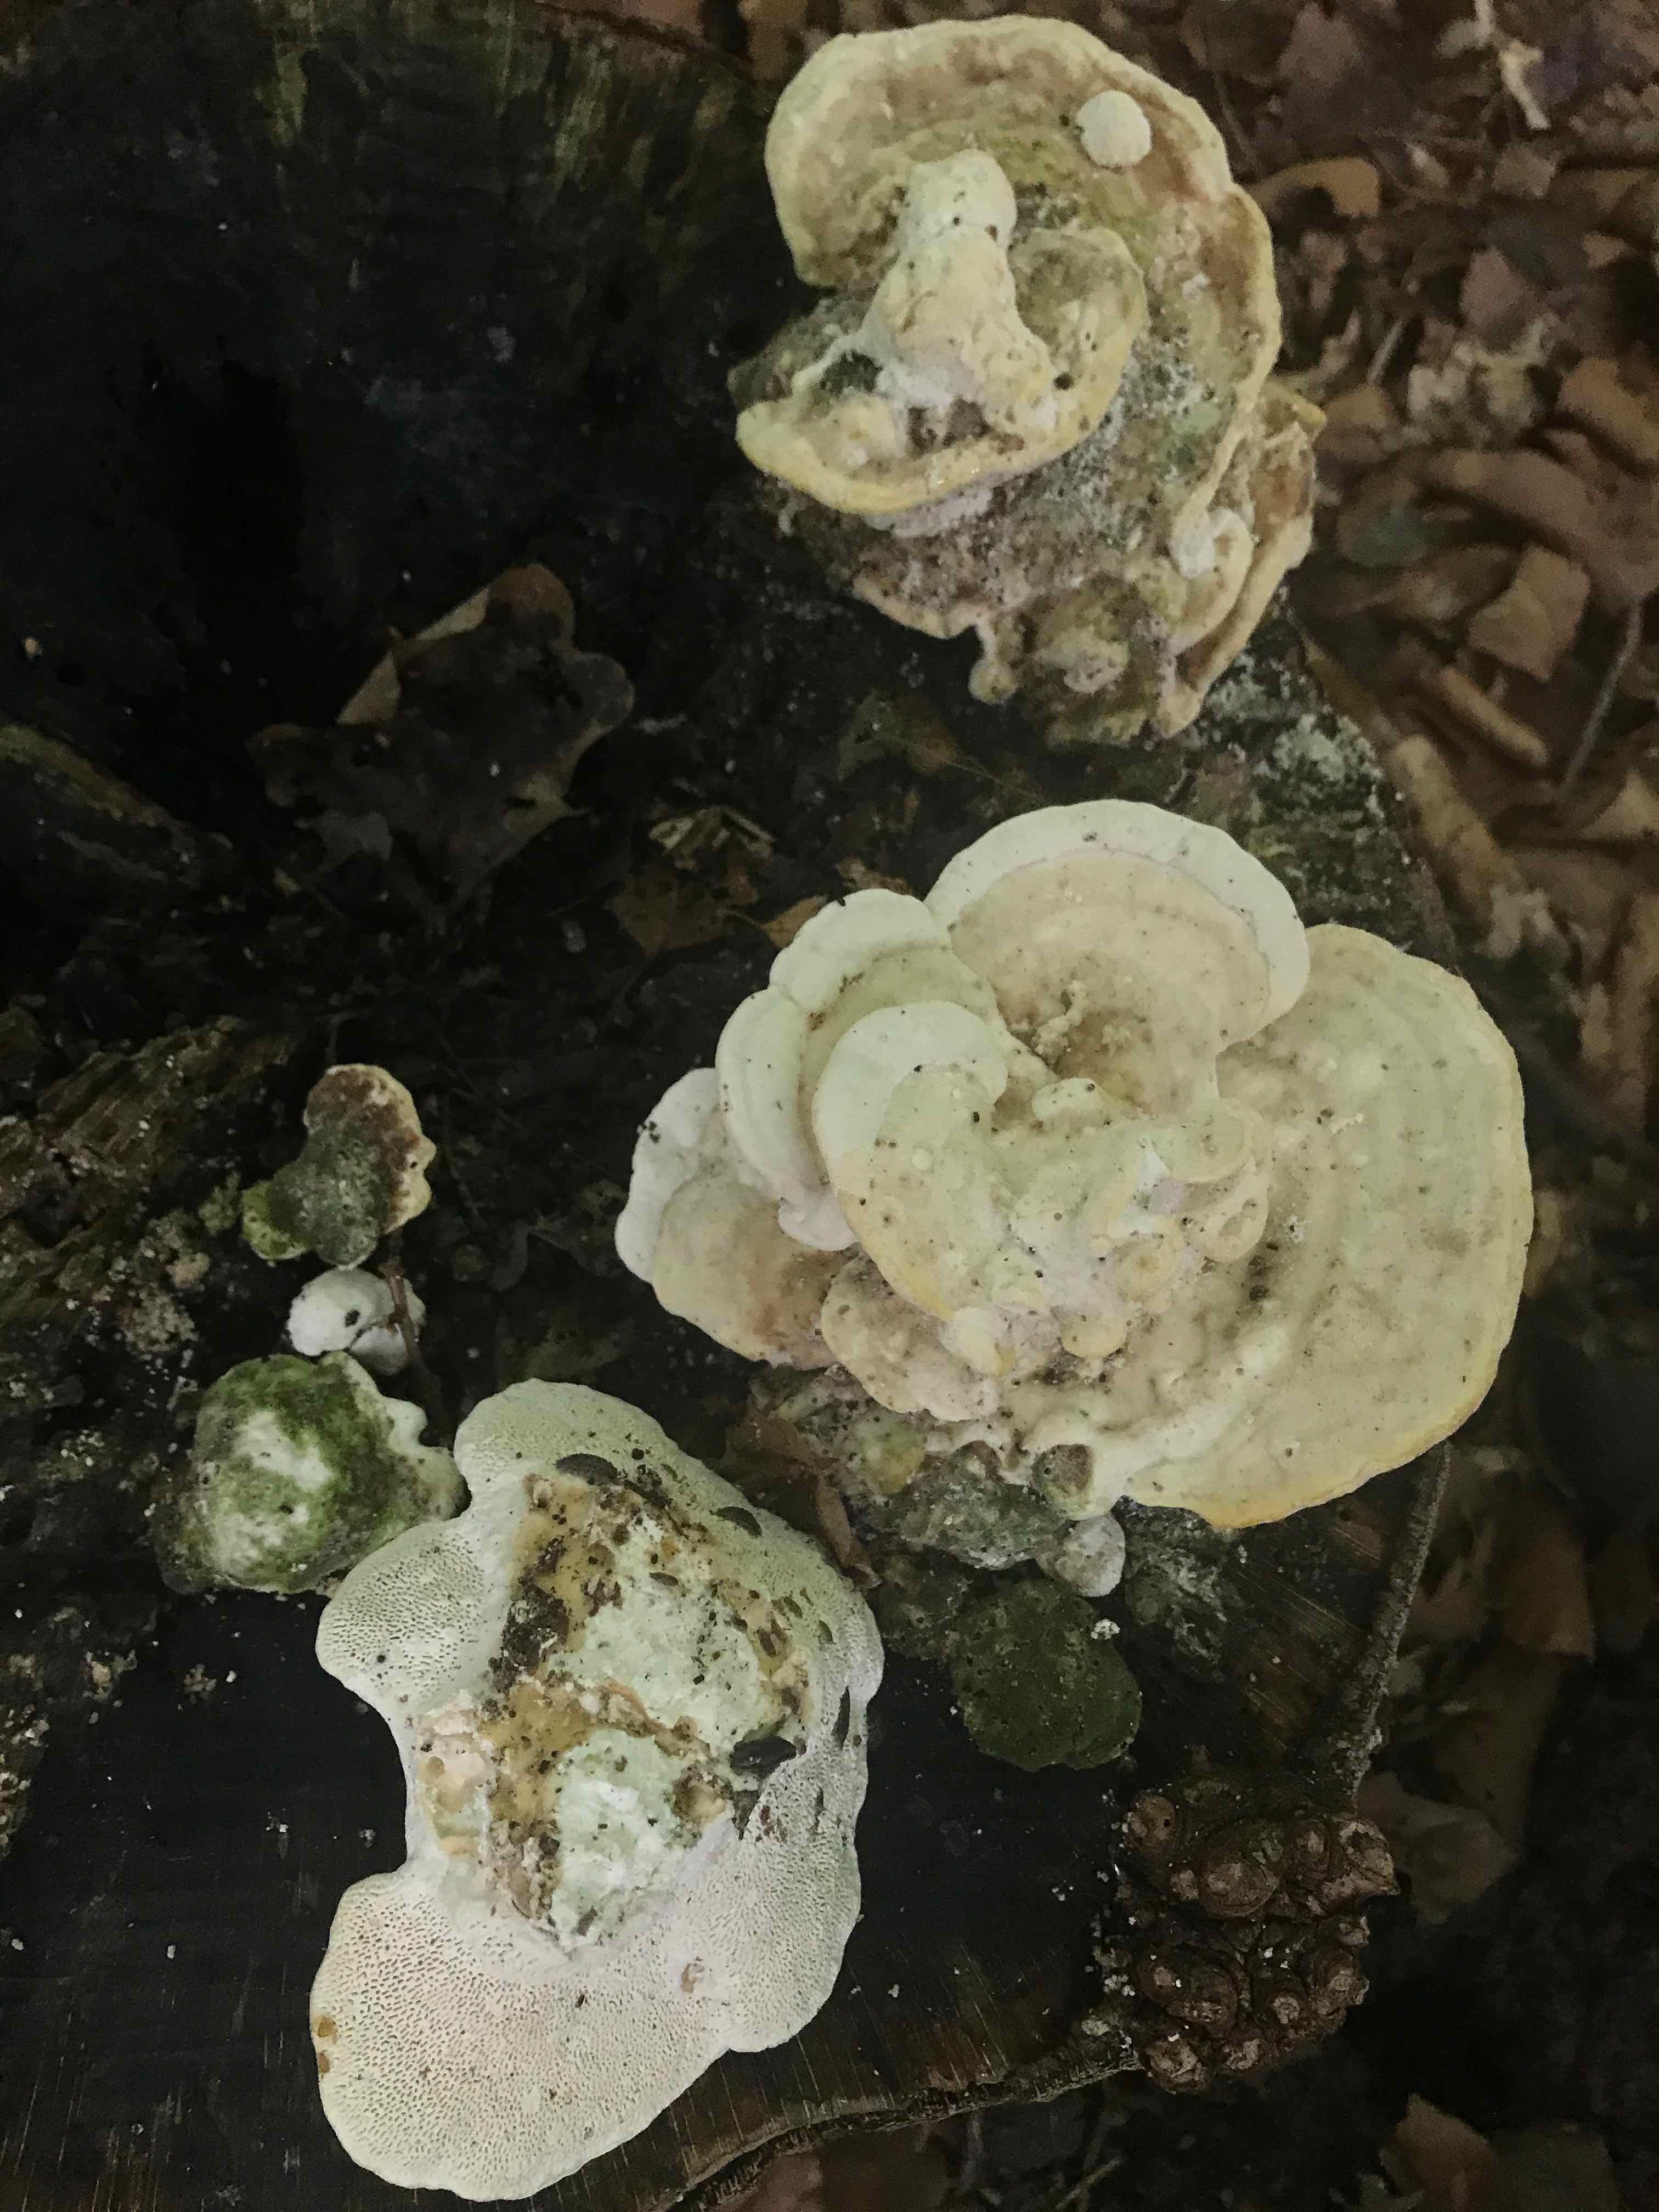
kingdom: Fungi
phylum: Basidiomycota
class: Agaricomycetes
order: Polyporales
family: Polyporaceae
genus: Trametes
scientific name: Trametes gibbosa
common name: puklet læderporesvamp
